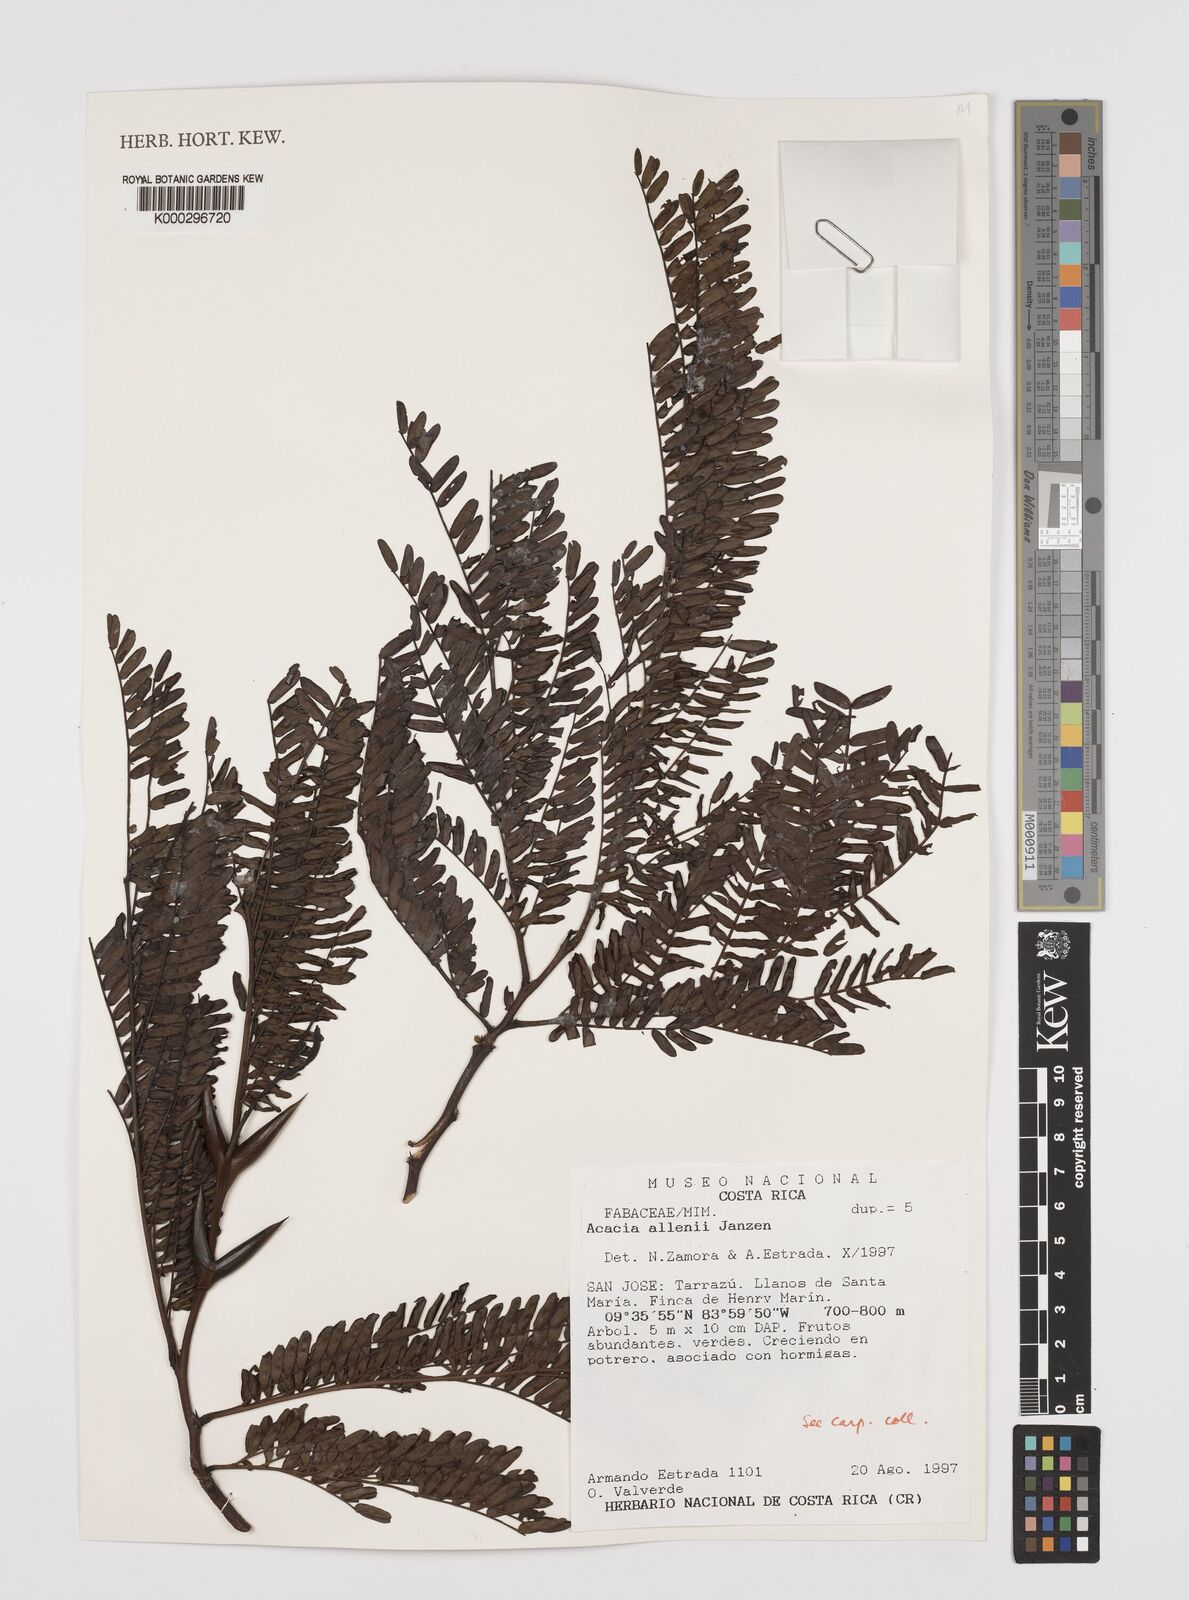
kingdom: Plantae
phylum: Tracheophyta
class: Magnoliopsida
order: Fabales
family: Fabaceae
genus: Vachellia
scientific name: Vachellia allenii
